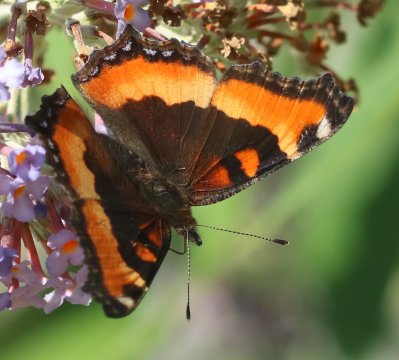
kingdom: Animalia
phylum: Arthropoda
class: Insecta
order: Lepidoptera
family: Nymphalidae
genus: Aglais
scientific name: Aglais milberti
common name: Milbert's Tortoiseshell
